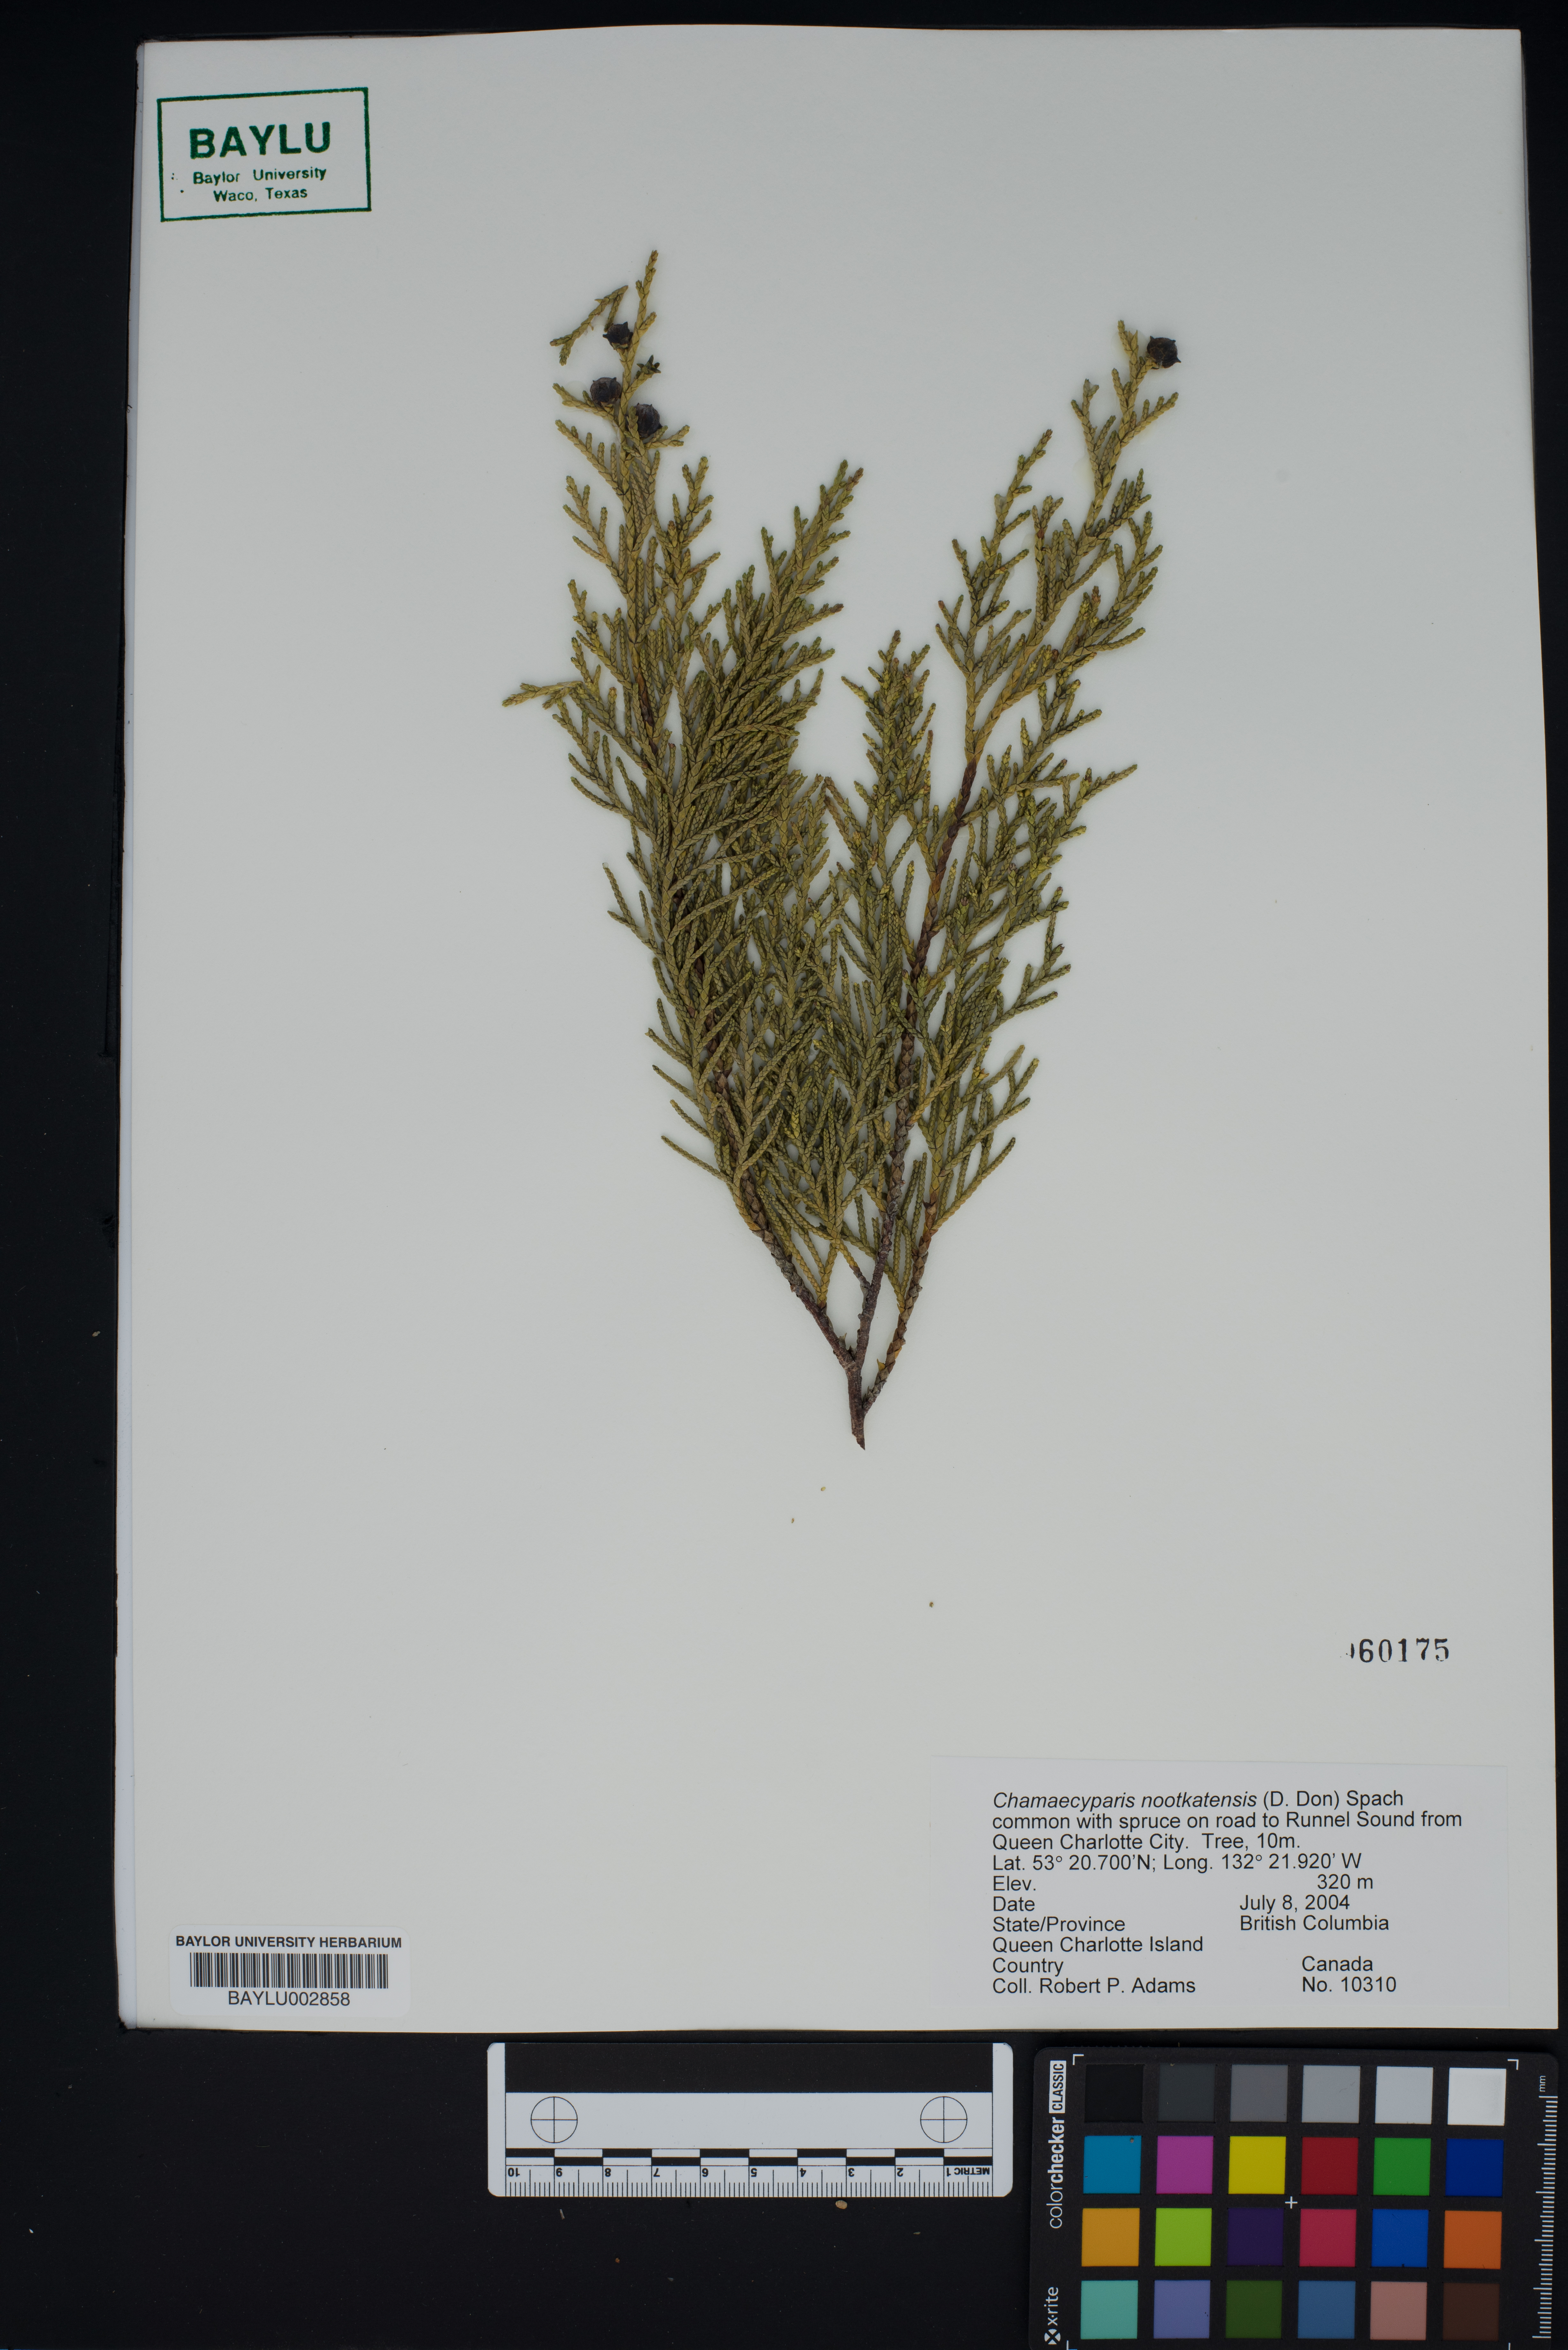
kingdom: Plantae
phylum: Tracheophyta
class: Pinopsida
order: Pinales
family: Cupressaceae
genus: Xanthocyparis
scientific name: Xanthocyparis nootkatensis
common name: Nootka cypress
